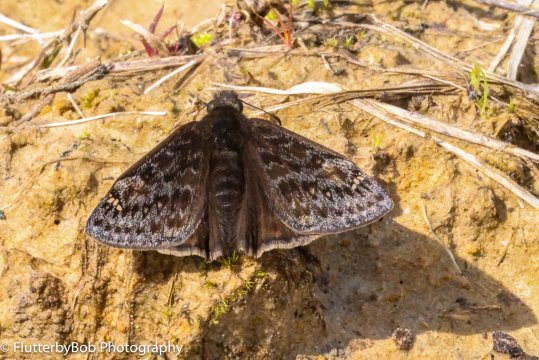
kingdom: Animalia
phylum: Arthropoda
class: Insecta
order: Lepidoptera
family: Hesperiidae
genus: Gesta
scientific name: Gesta
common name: Juvenal's Duskywing
